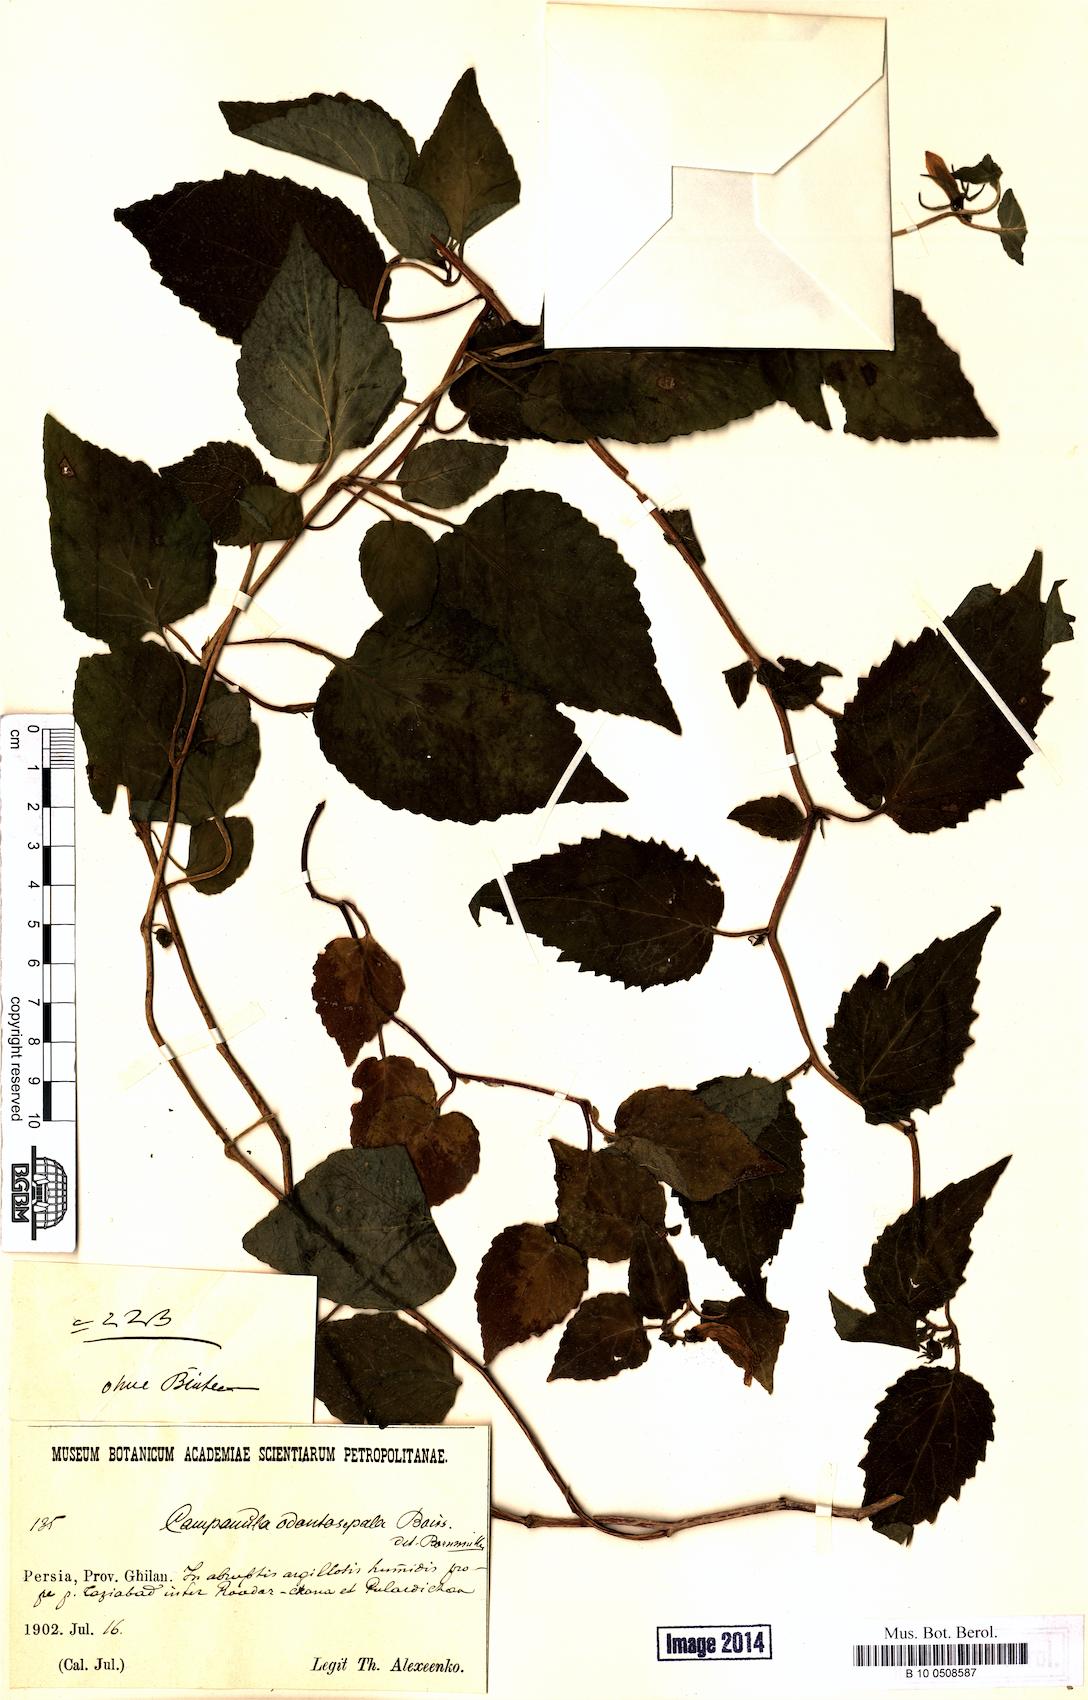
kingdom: Plantae
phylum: Tracheophyta
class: Magnoliopsida
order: Asterales
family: Campanulaceae
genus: Campanula
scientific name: Campanula odontosepala
